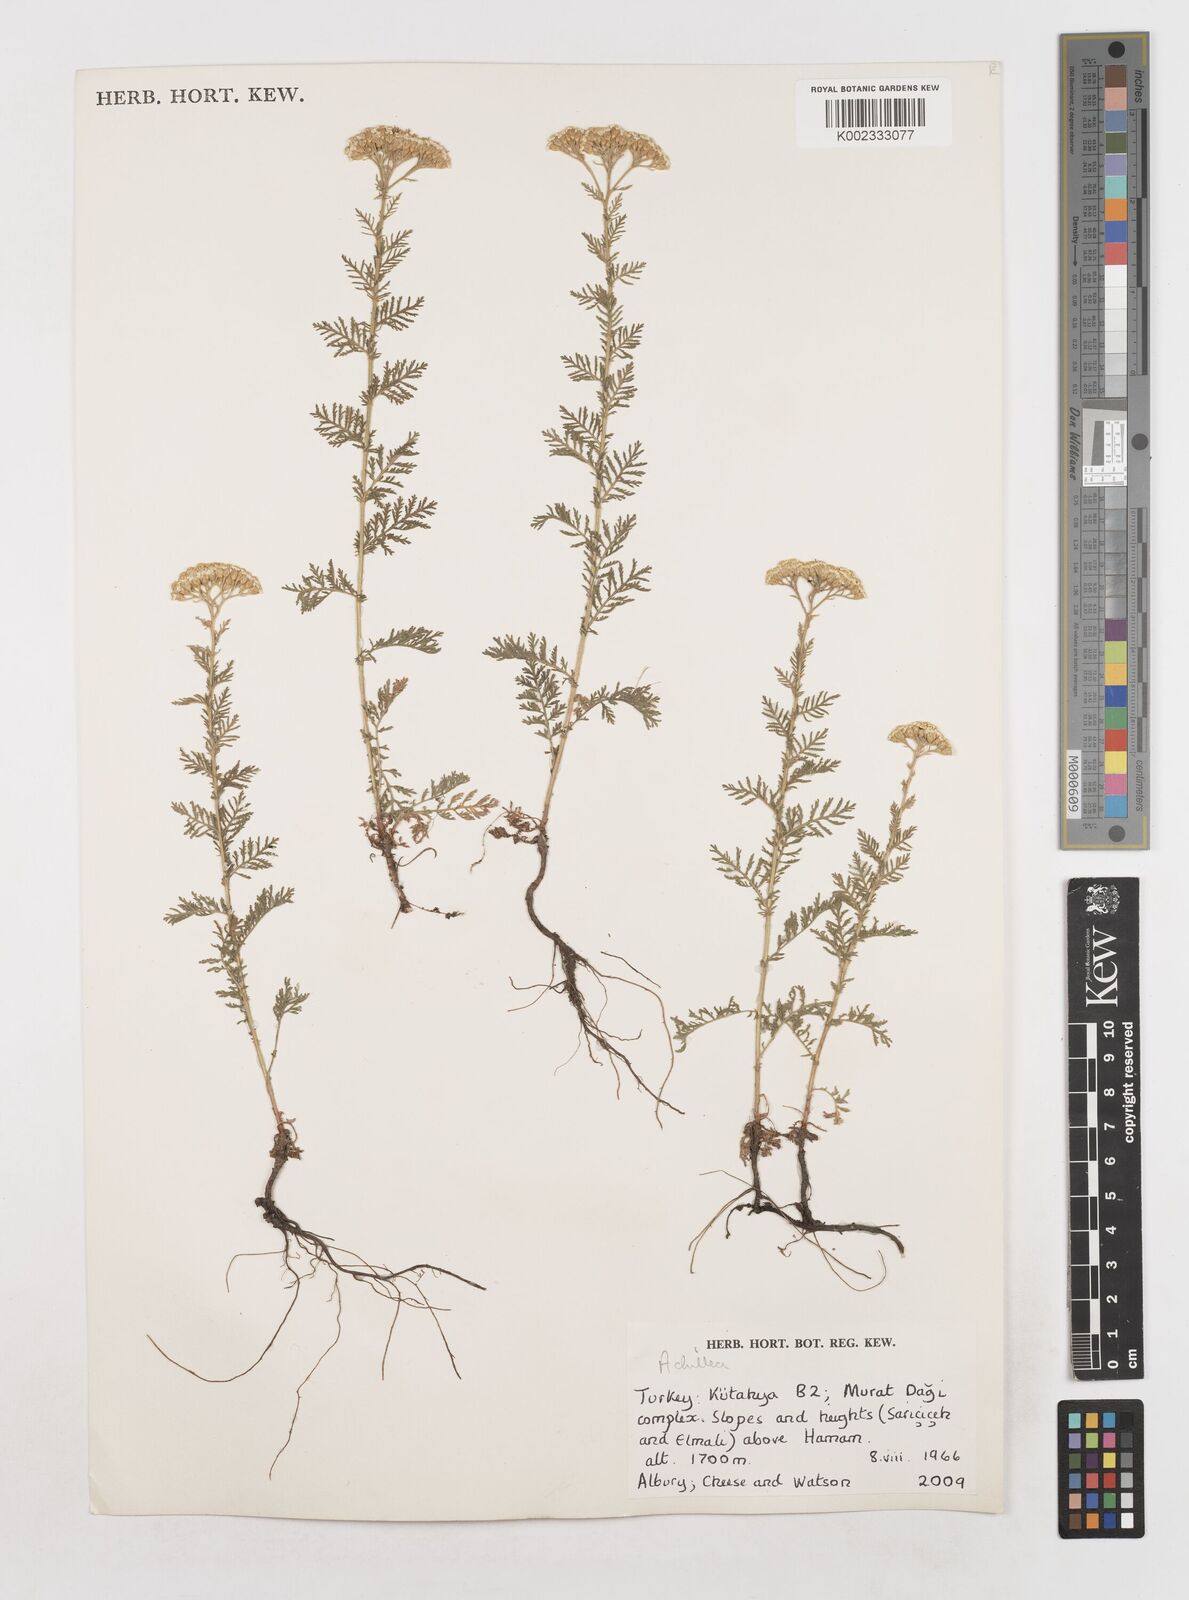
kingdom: Plantae
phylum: Tracheophyta
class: Magnoliopsida
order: Asterales
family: Asteraceae
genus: Achillea
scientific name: Achillea
